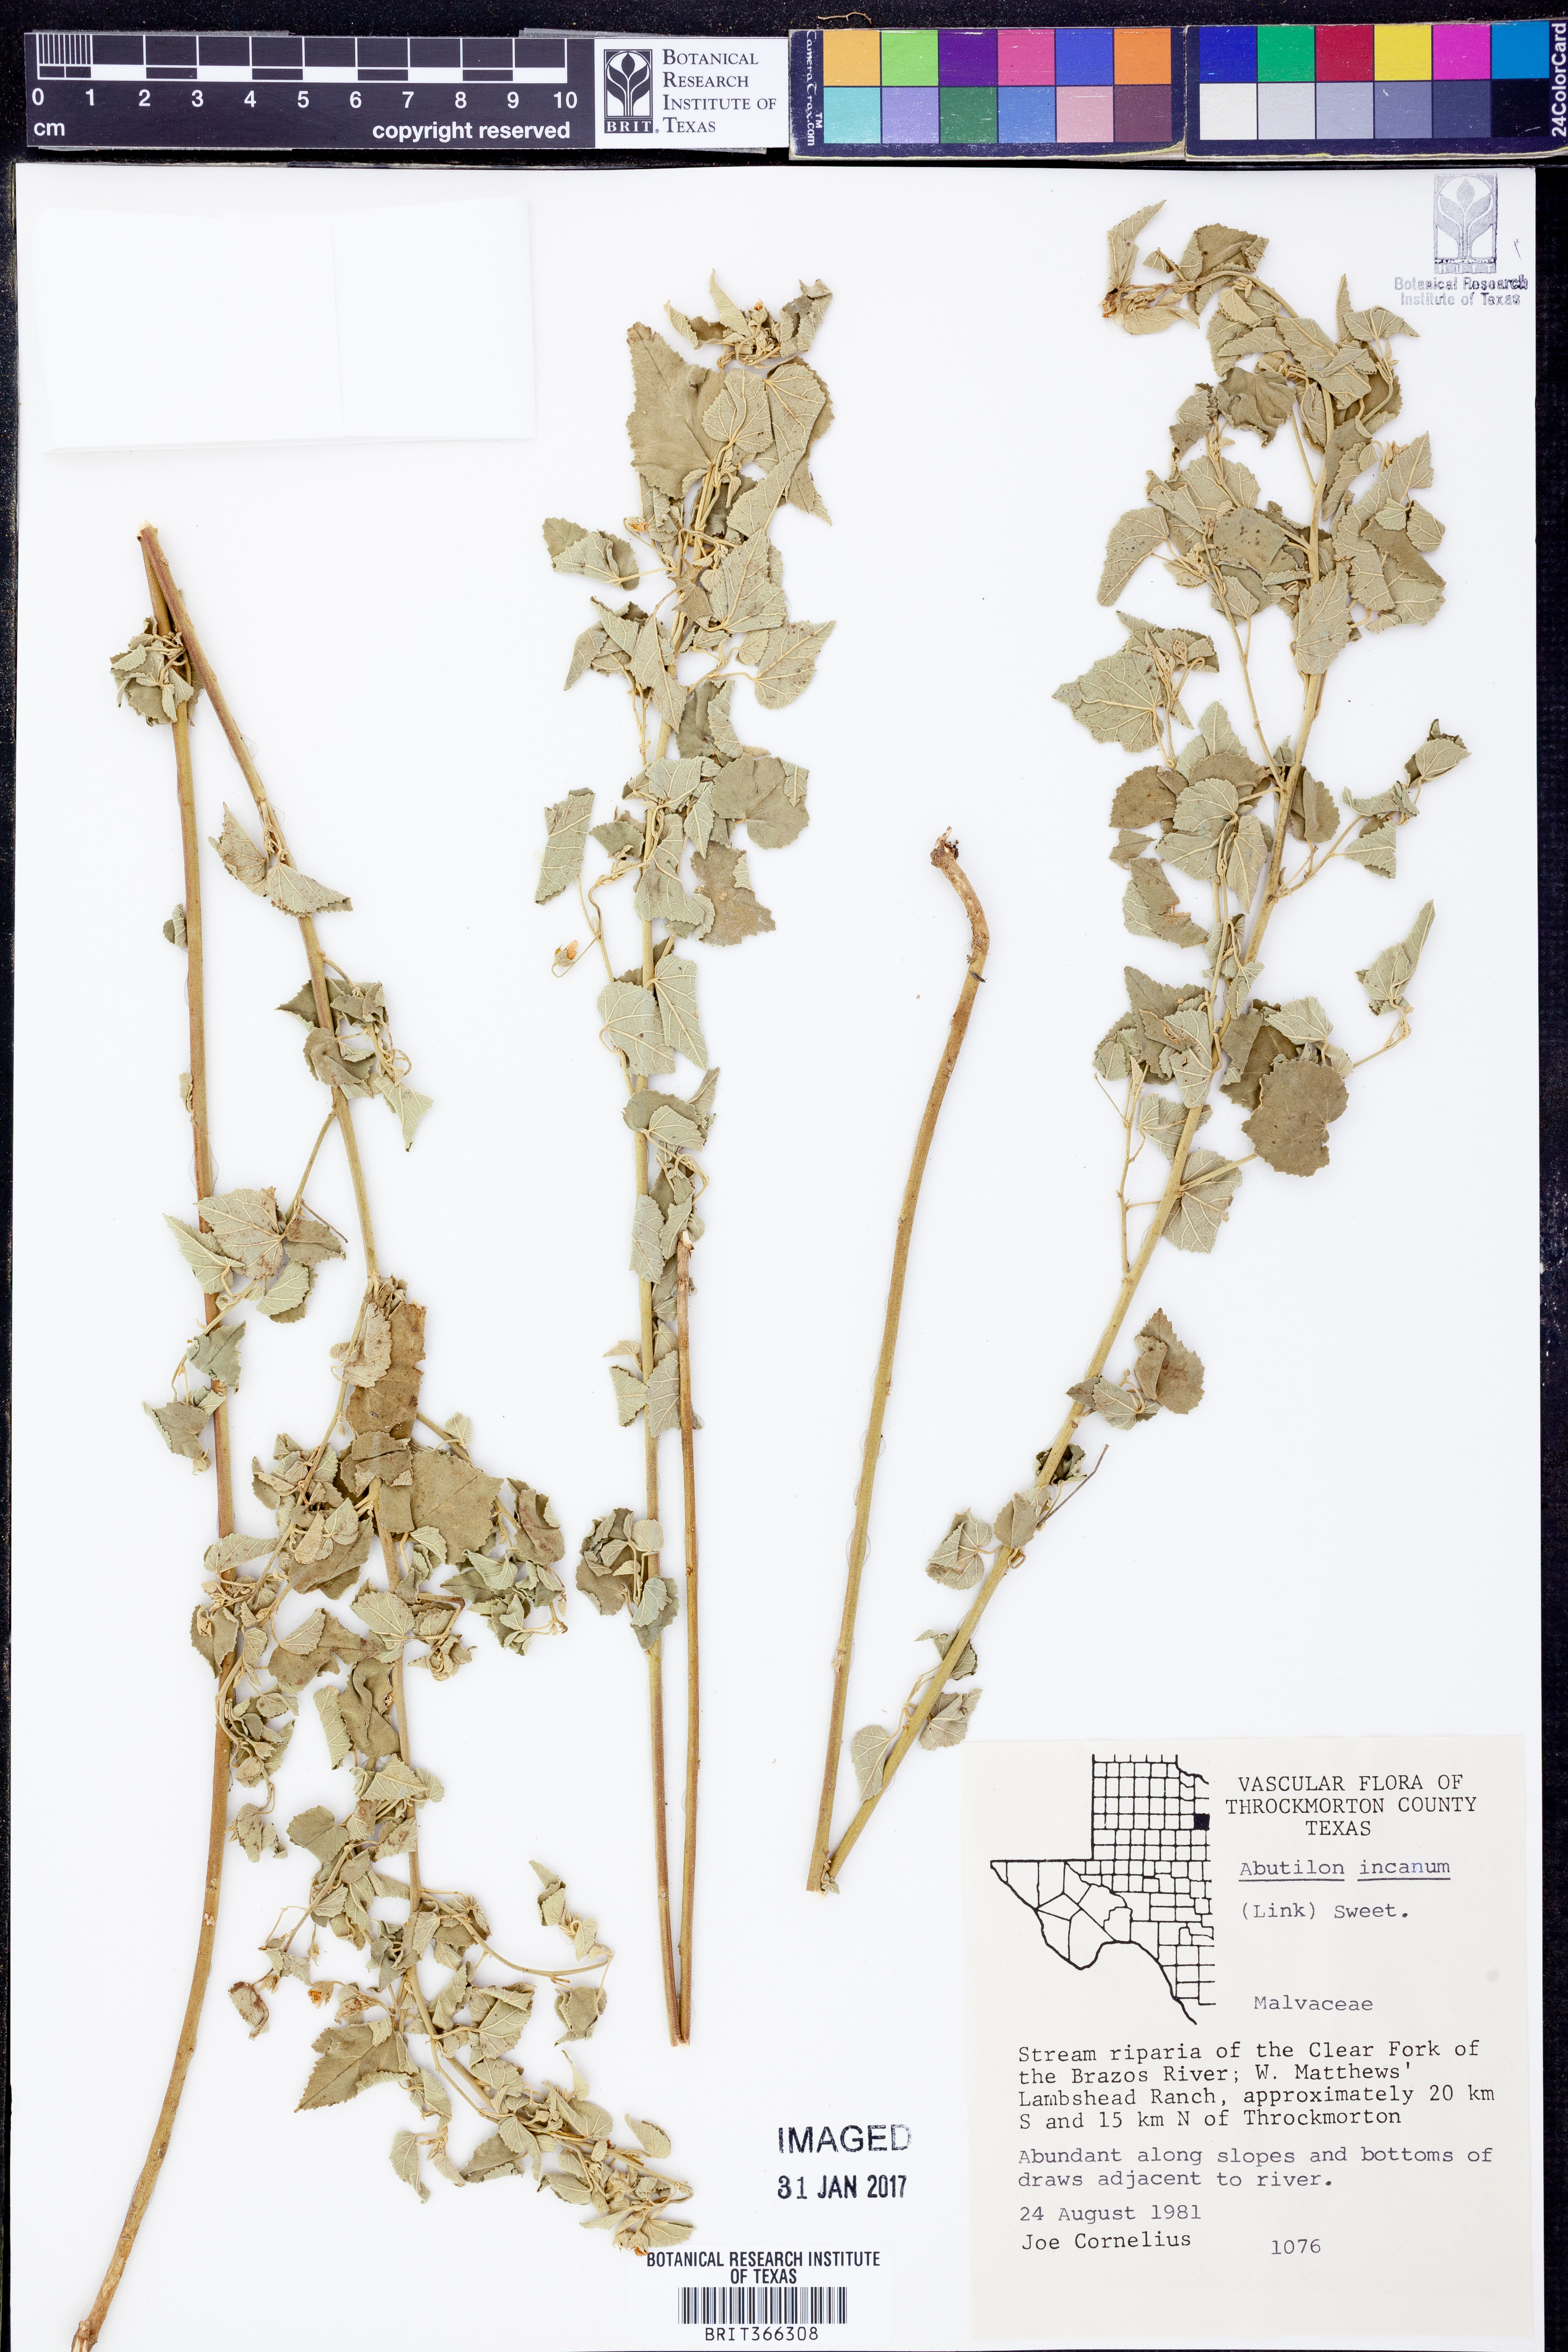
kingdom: Plantae
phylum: Tracheophyta
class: Magnoliopsida
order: Malvales
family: Malvaceae
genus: Abutilon
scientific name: Abutilon incanum
